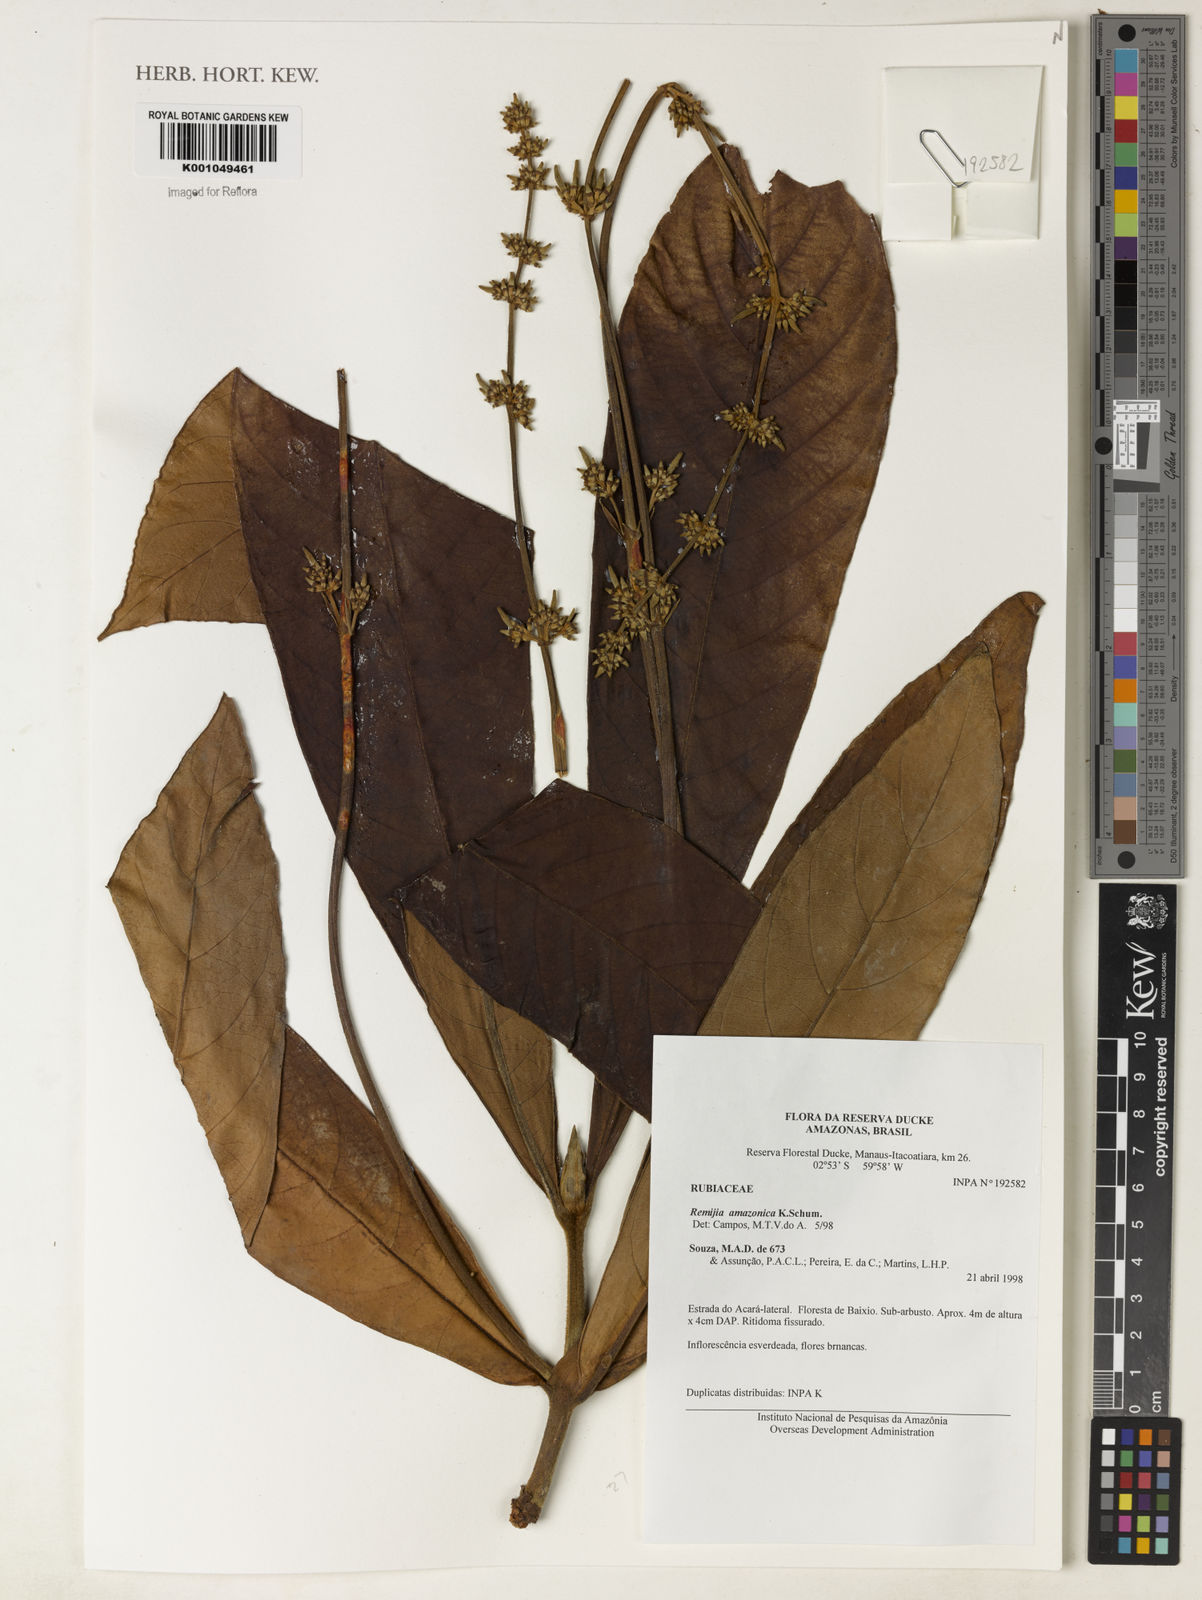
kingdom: Plantae
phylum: Tracheophyta
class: Magnoliopsida
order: Gentianales
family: Rubiaceae
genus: Remijia
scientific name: Remijia amazonica
